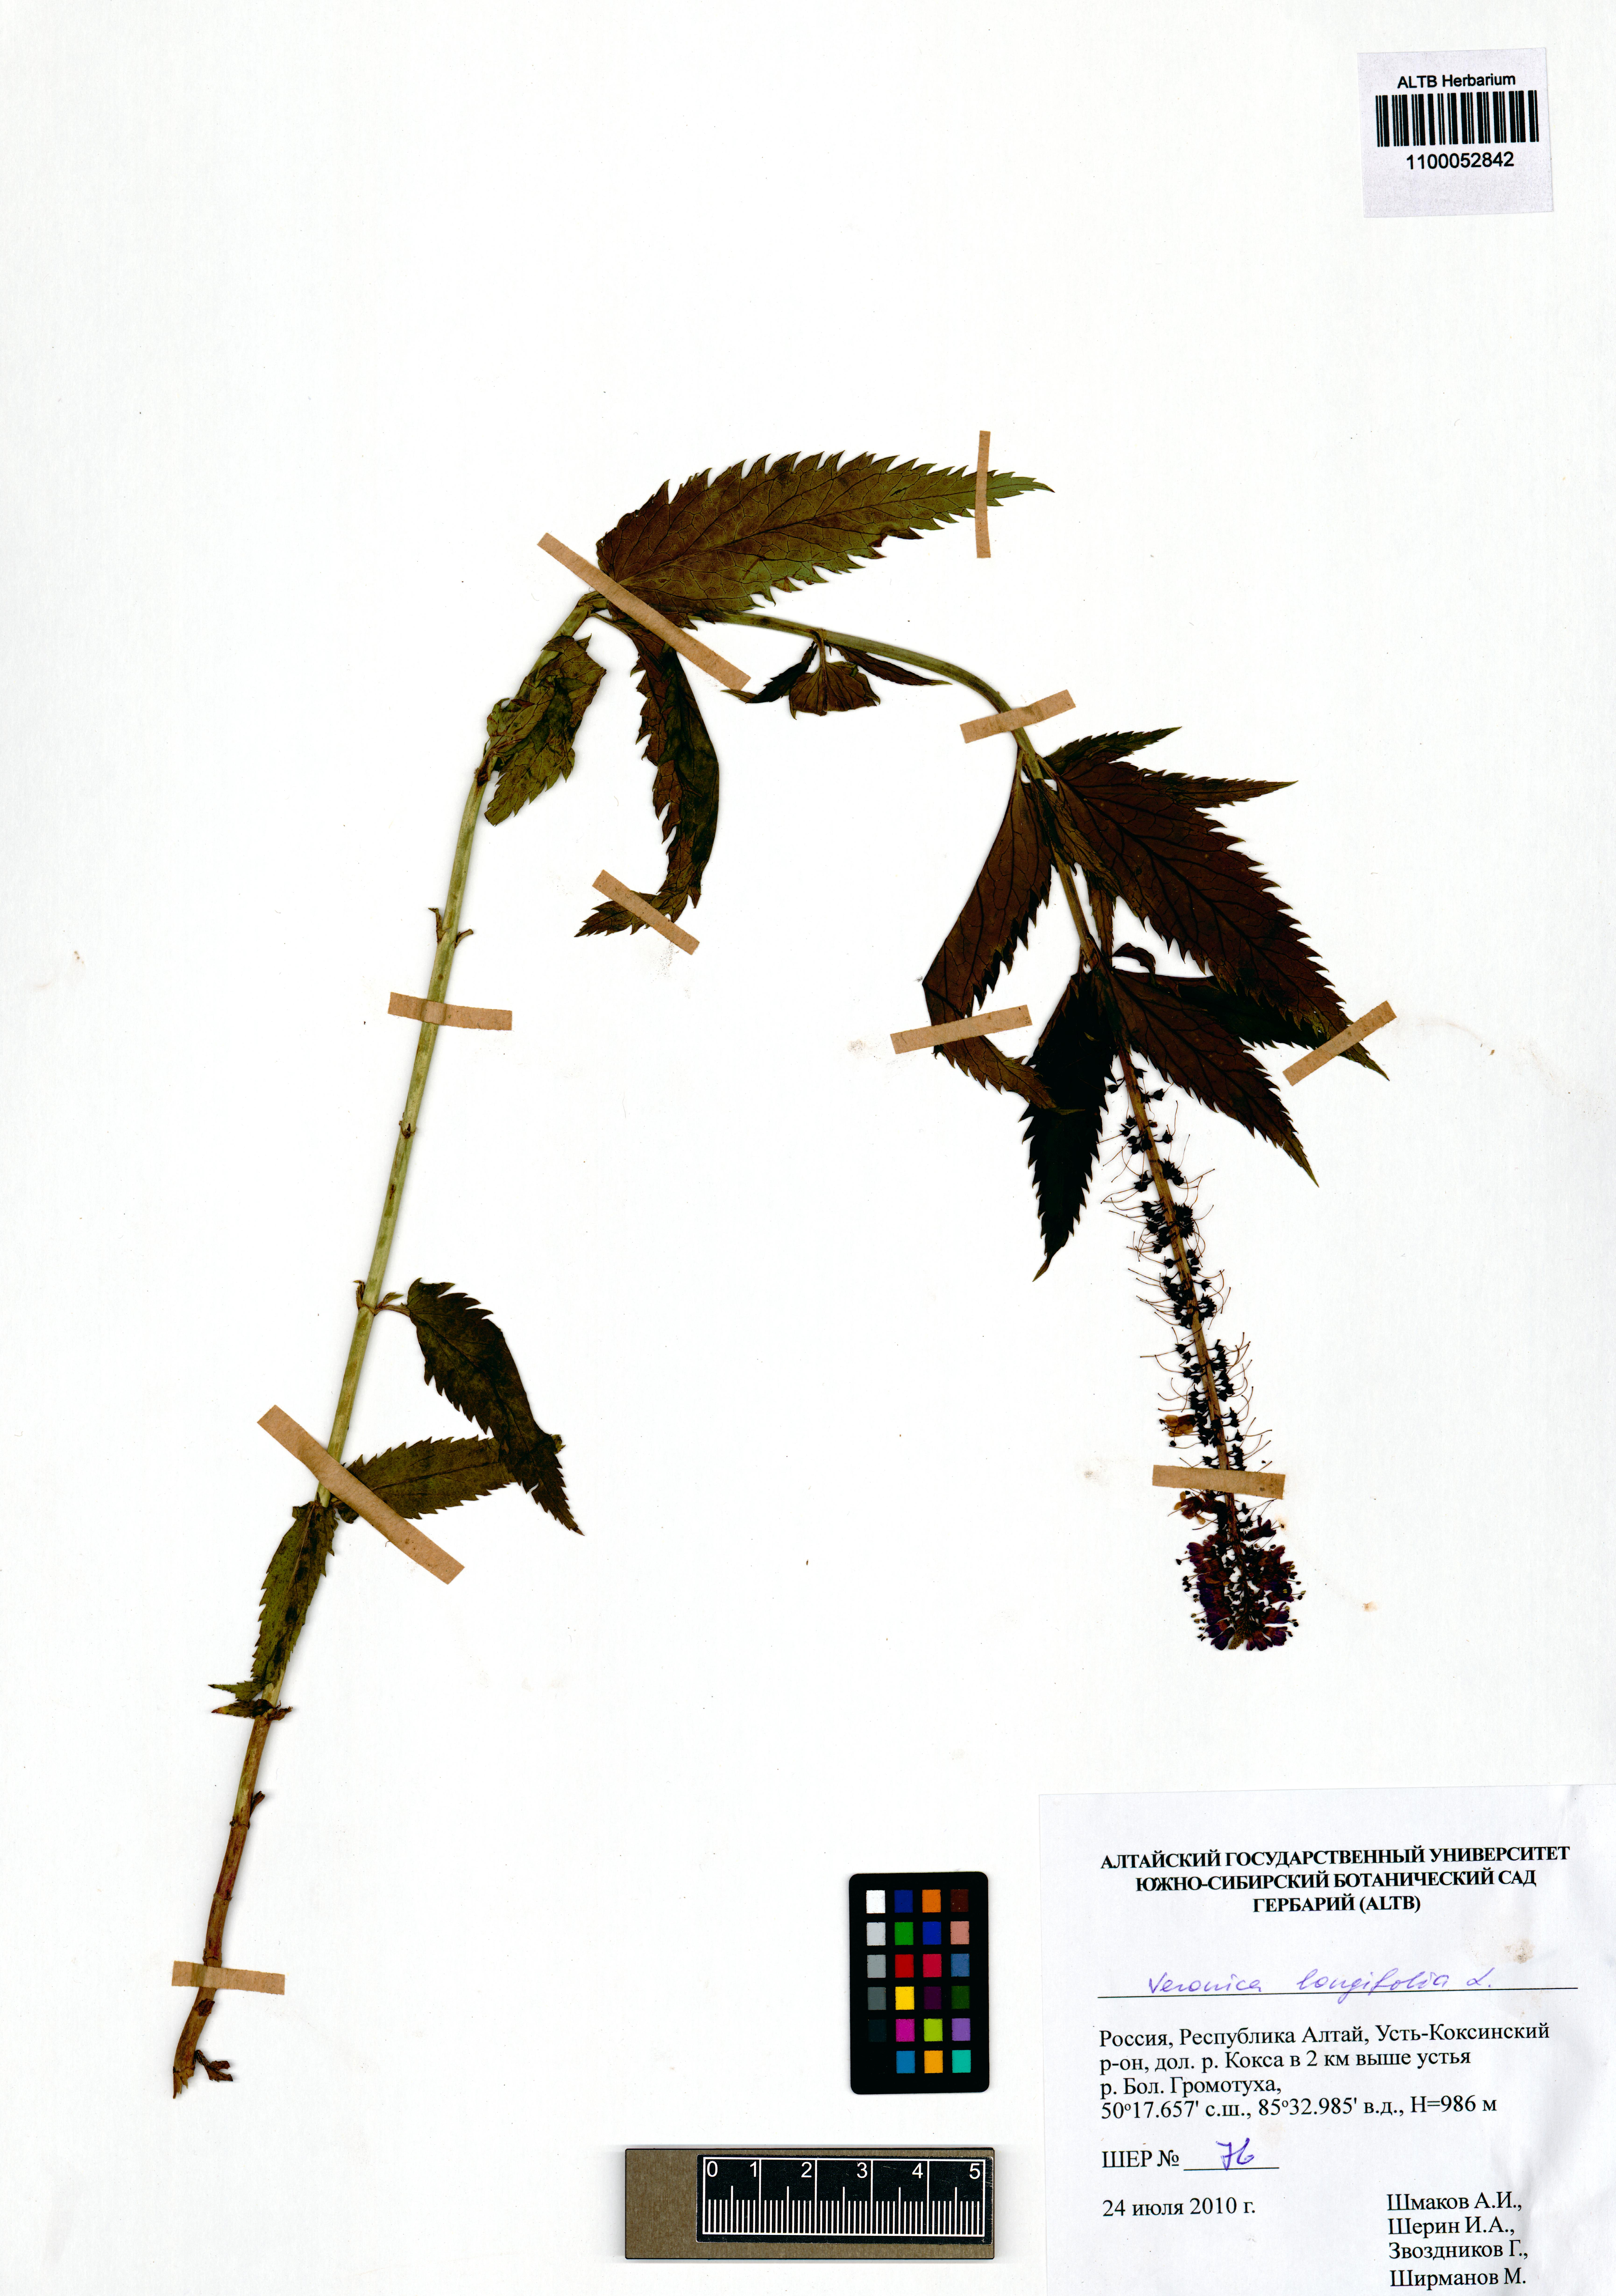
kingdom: Plantae
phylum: Tracheophyta
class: Magnoliopsida
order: Lamiales
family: Plantaginaceae
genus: Veronica
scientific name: Veronica longifolia
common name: Garden speedwell
